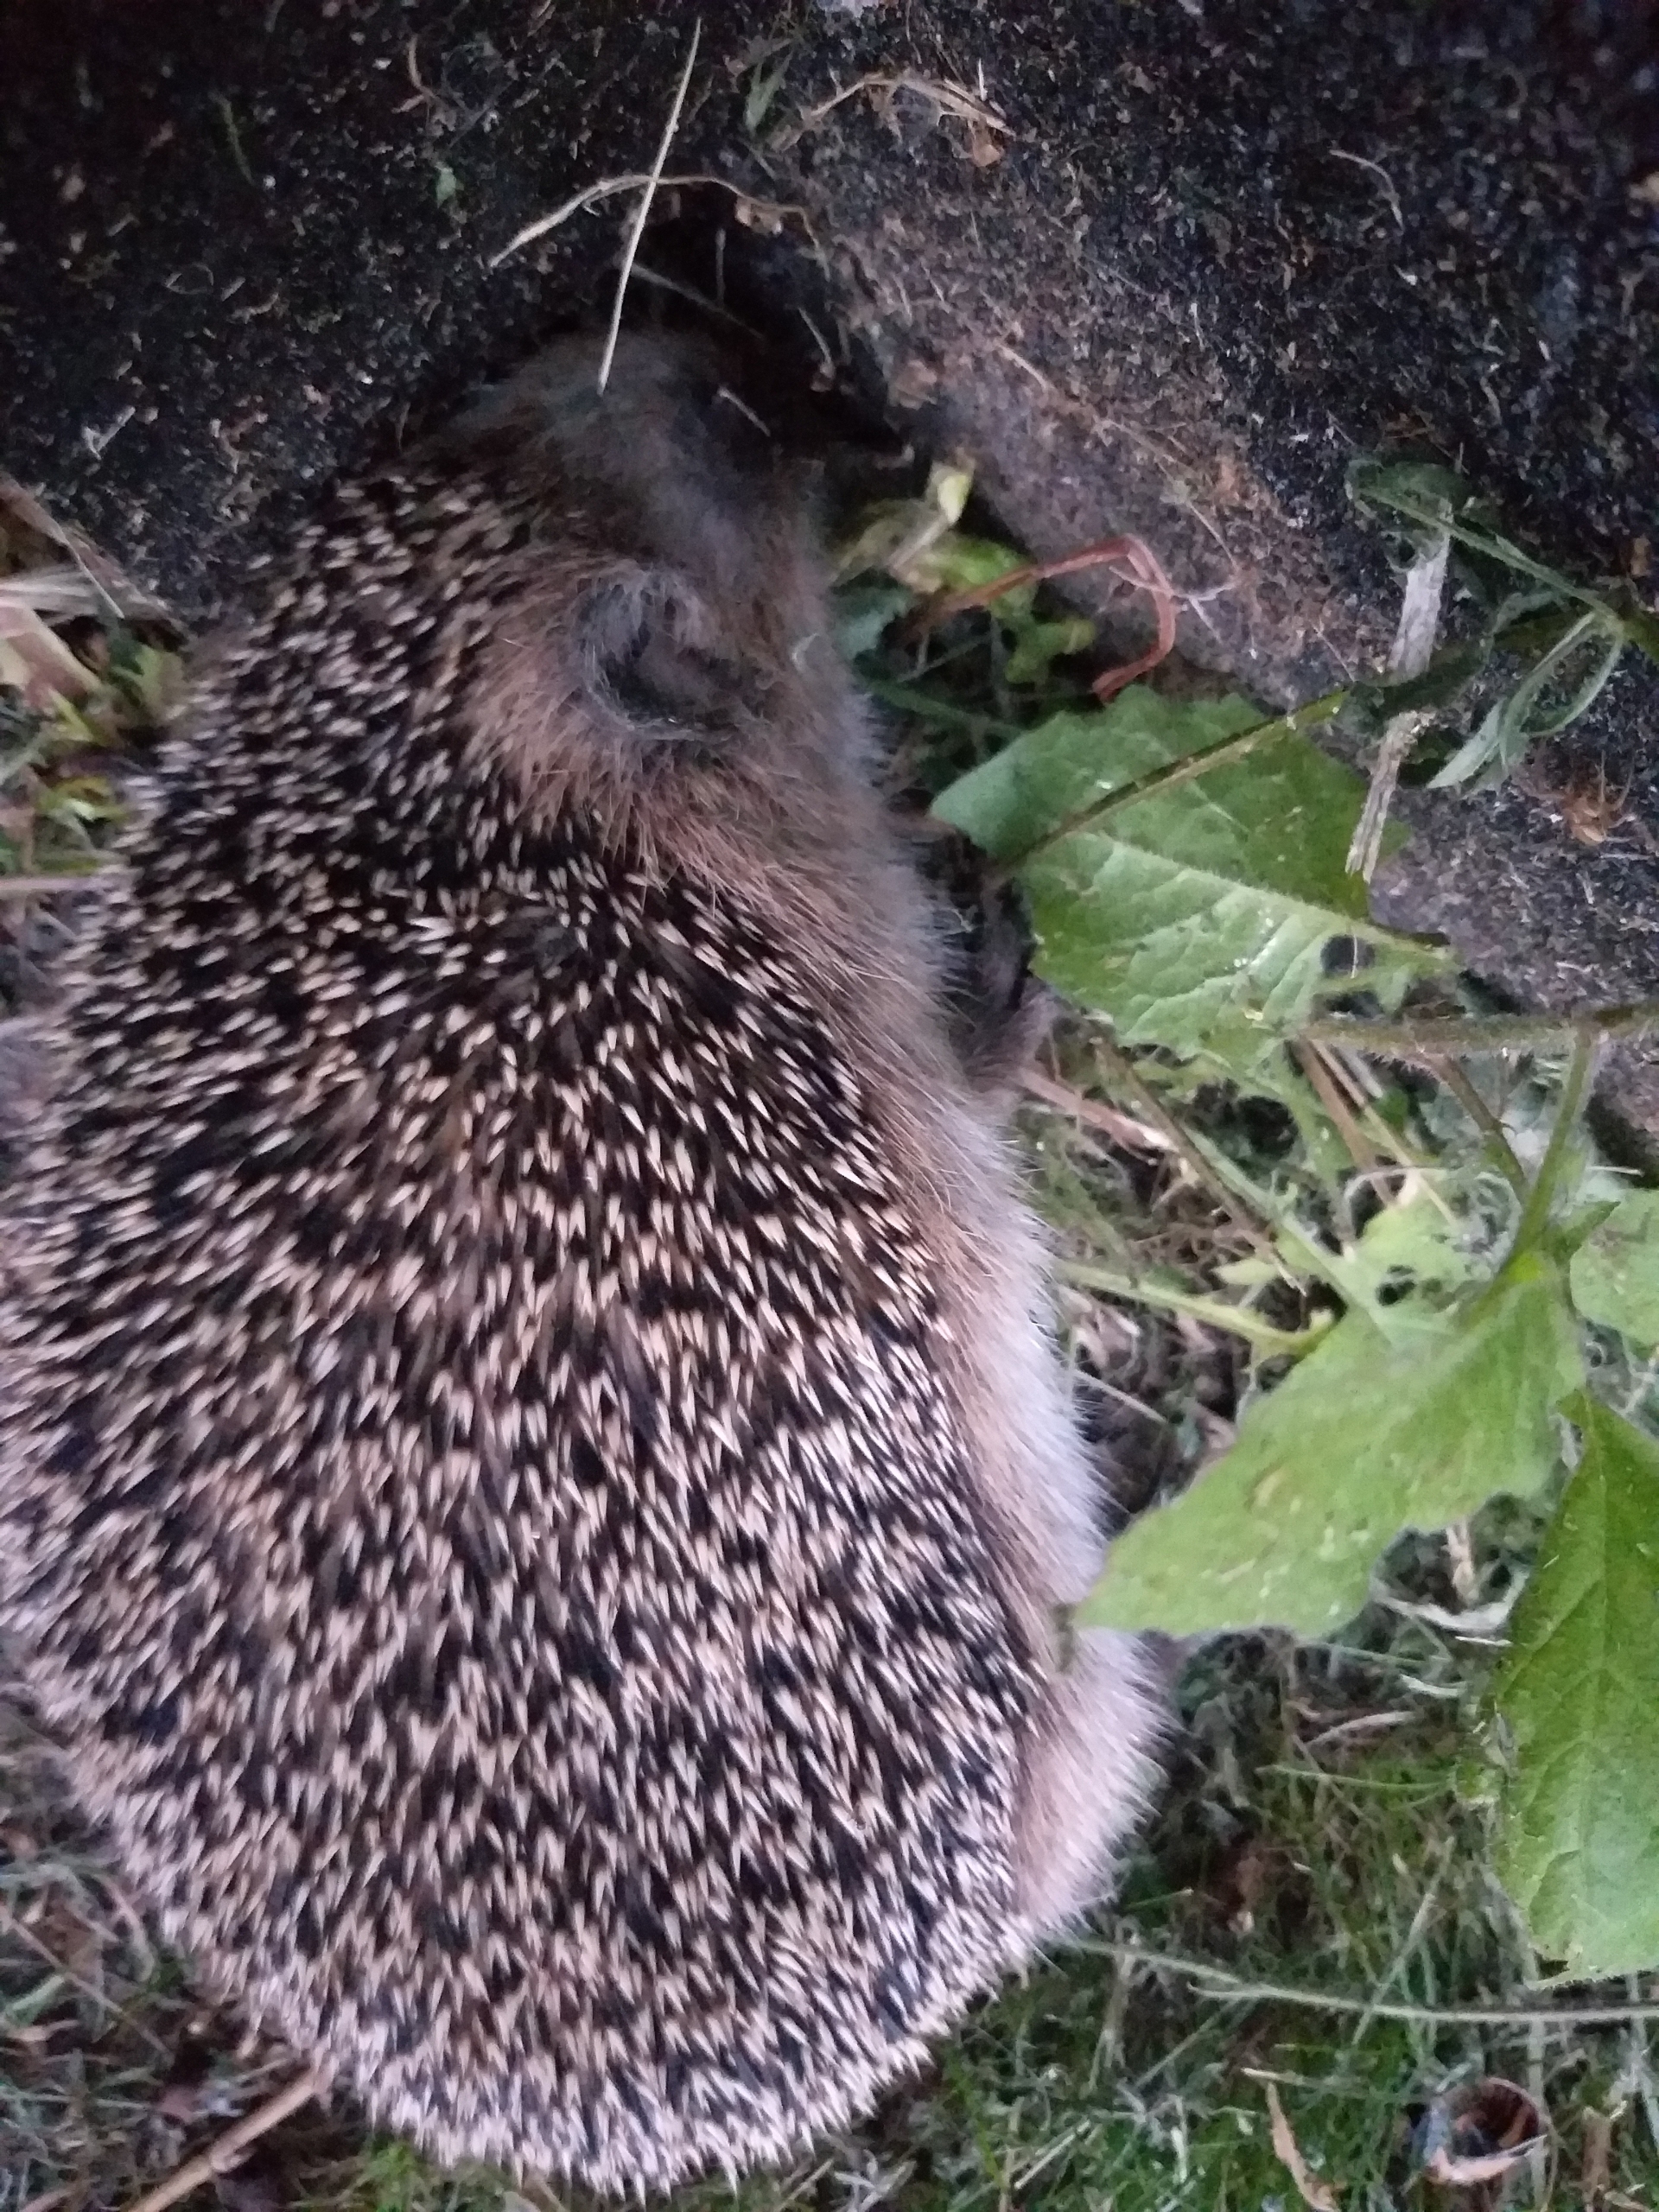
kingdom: Animalia
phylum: Chordata
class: Mammalia
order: Erinaceomorpha
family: Erinaceidae
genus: Erinaceus
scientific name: Erinaceus europaeus
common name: Pindsvin
